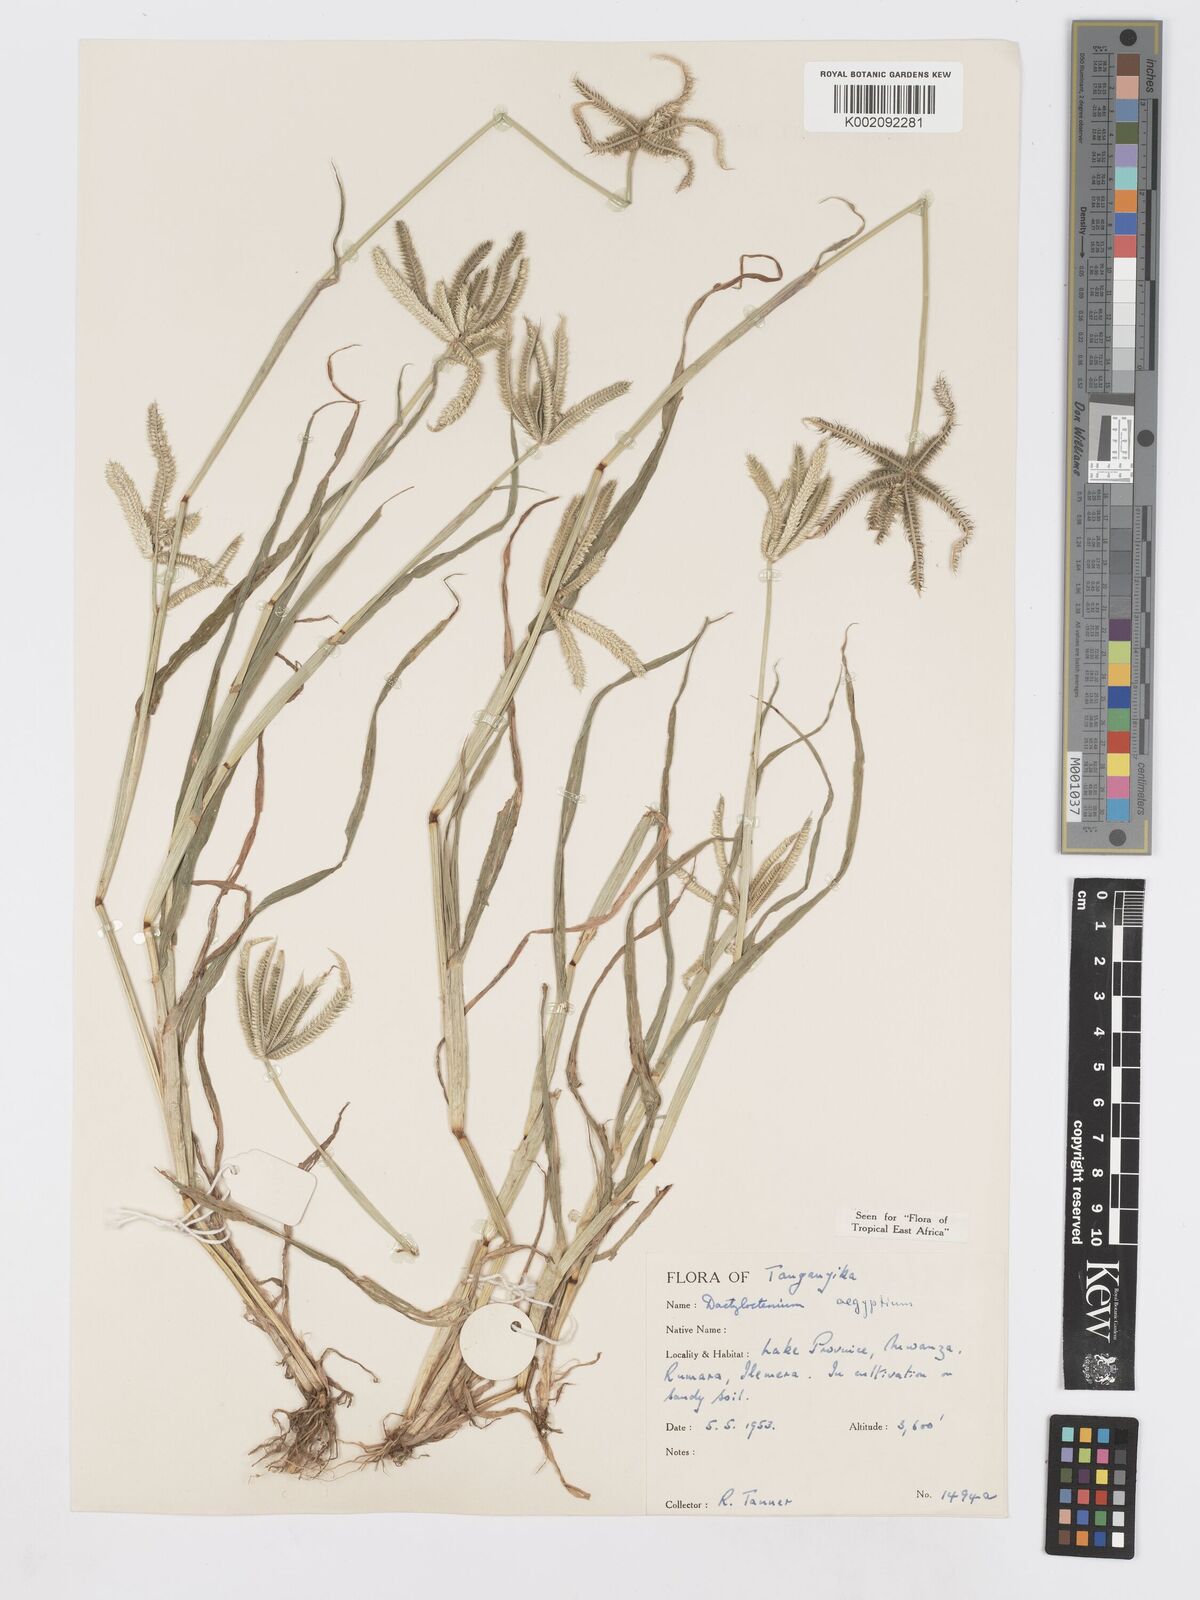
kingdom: Plantae
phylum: Tracheophyta
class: Liliopsida
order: Poales
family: Poaceae
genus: Dactyloctenium
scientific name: Dactyloctenium aegyptium
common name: Egyptian grass
